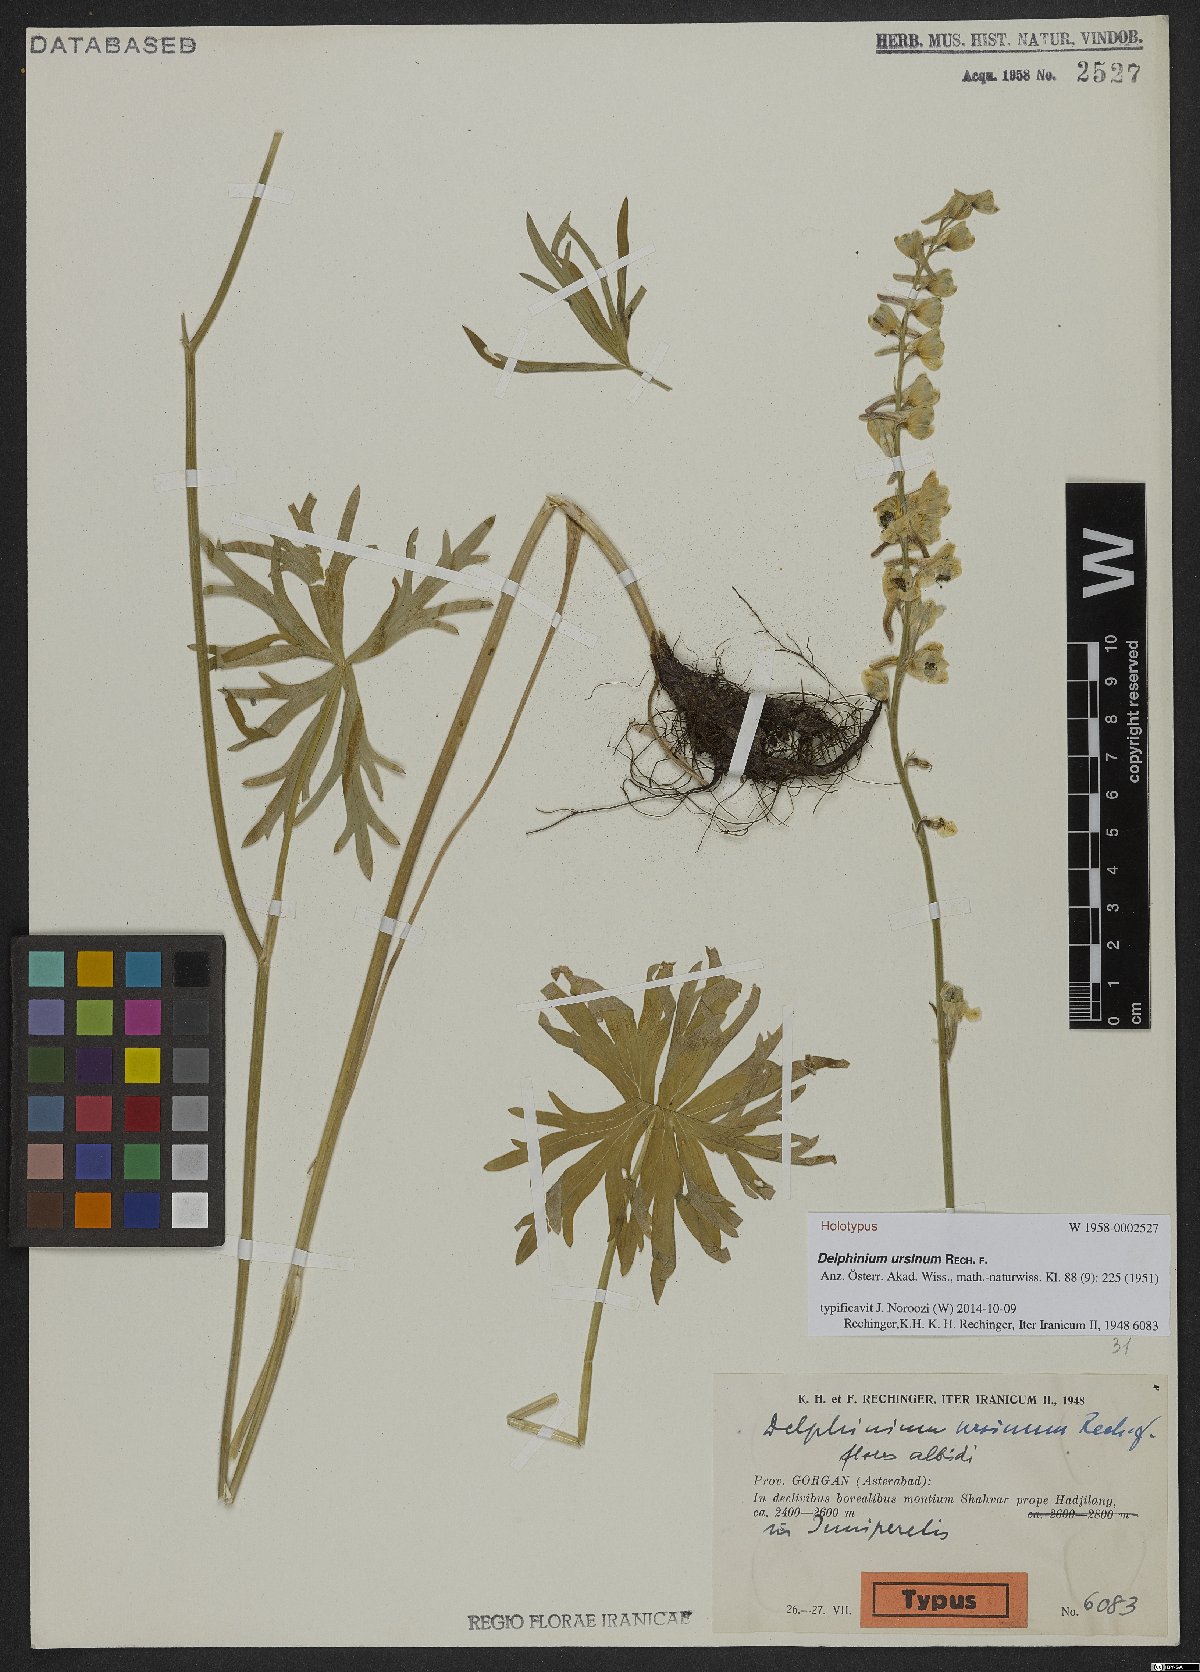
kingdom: Plantae
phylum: Tracheophyta
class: Magnoliopsida
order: Ranunculales
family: Ranunculaceae
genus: Delphinium
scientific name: Delphinium ursinum
